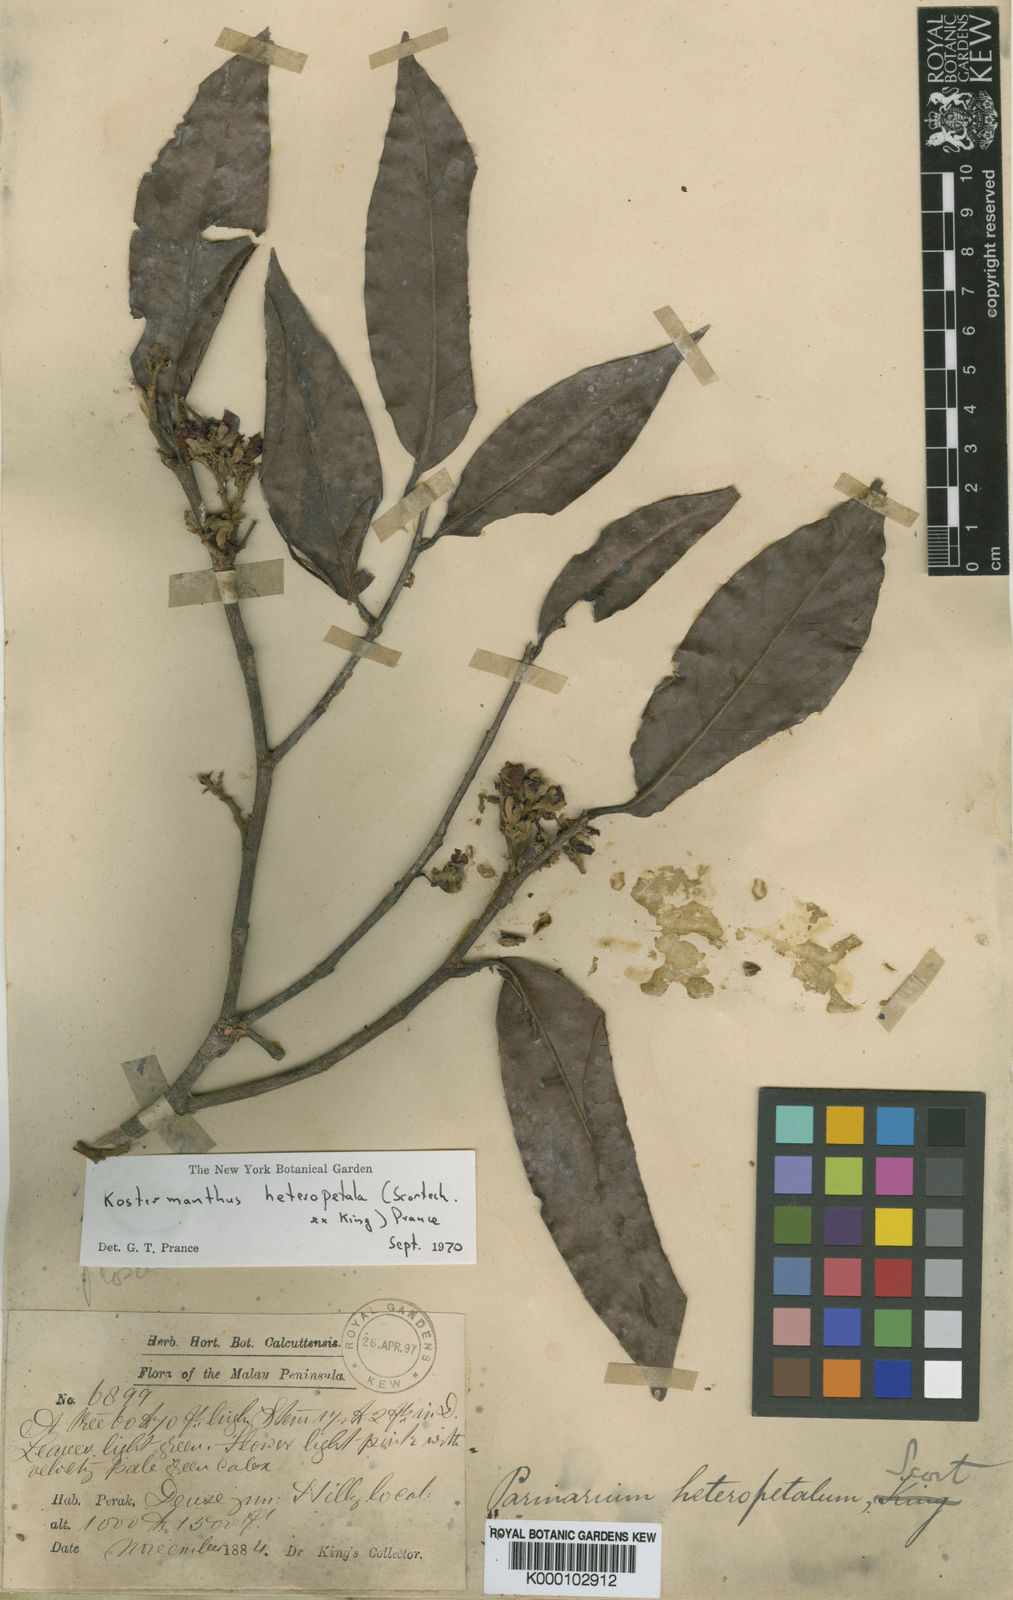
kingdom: Plantae
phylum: Tracheophyta
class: Magnoliopsida
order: Malpighiales
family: Chrysobalanaceae
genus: Kostermanthus
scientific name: Kostermanthus heteropetalus
